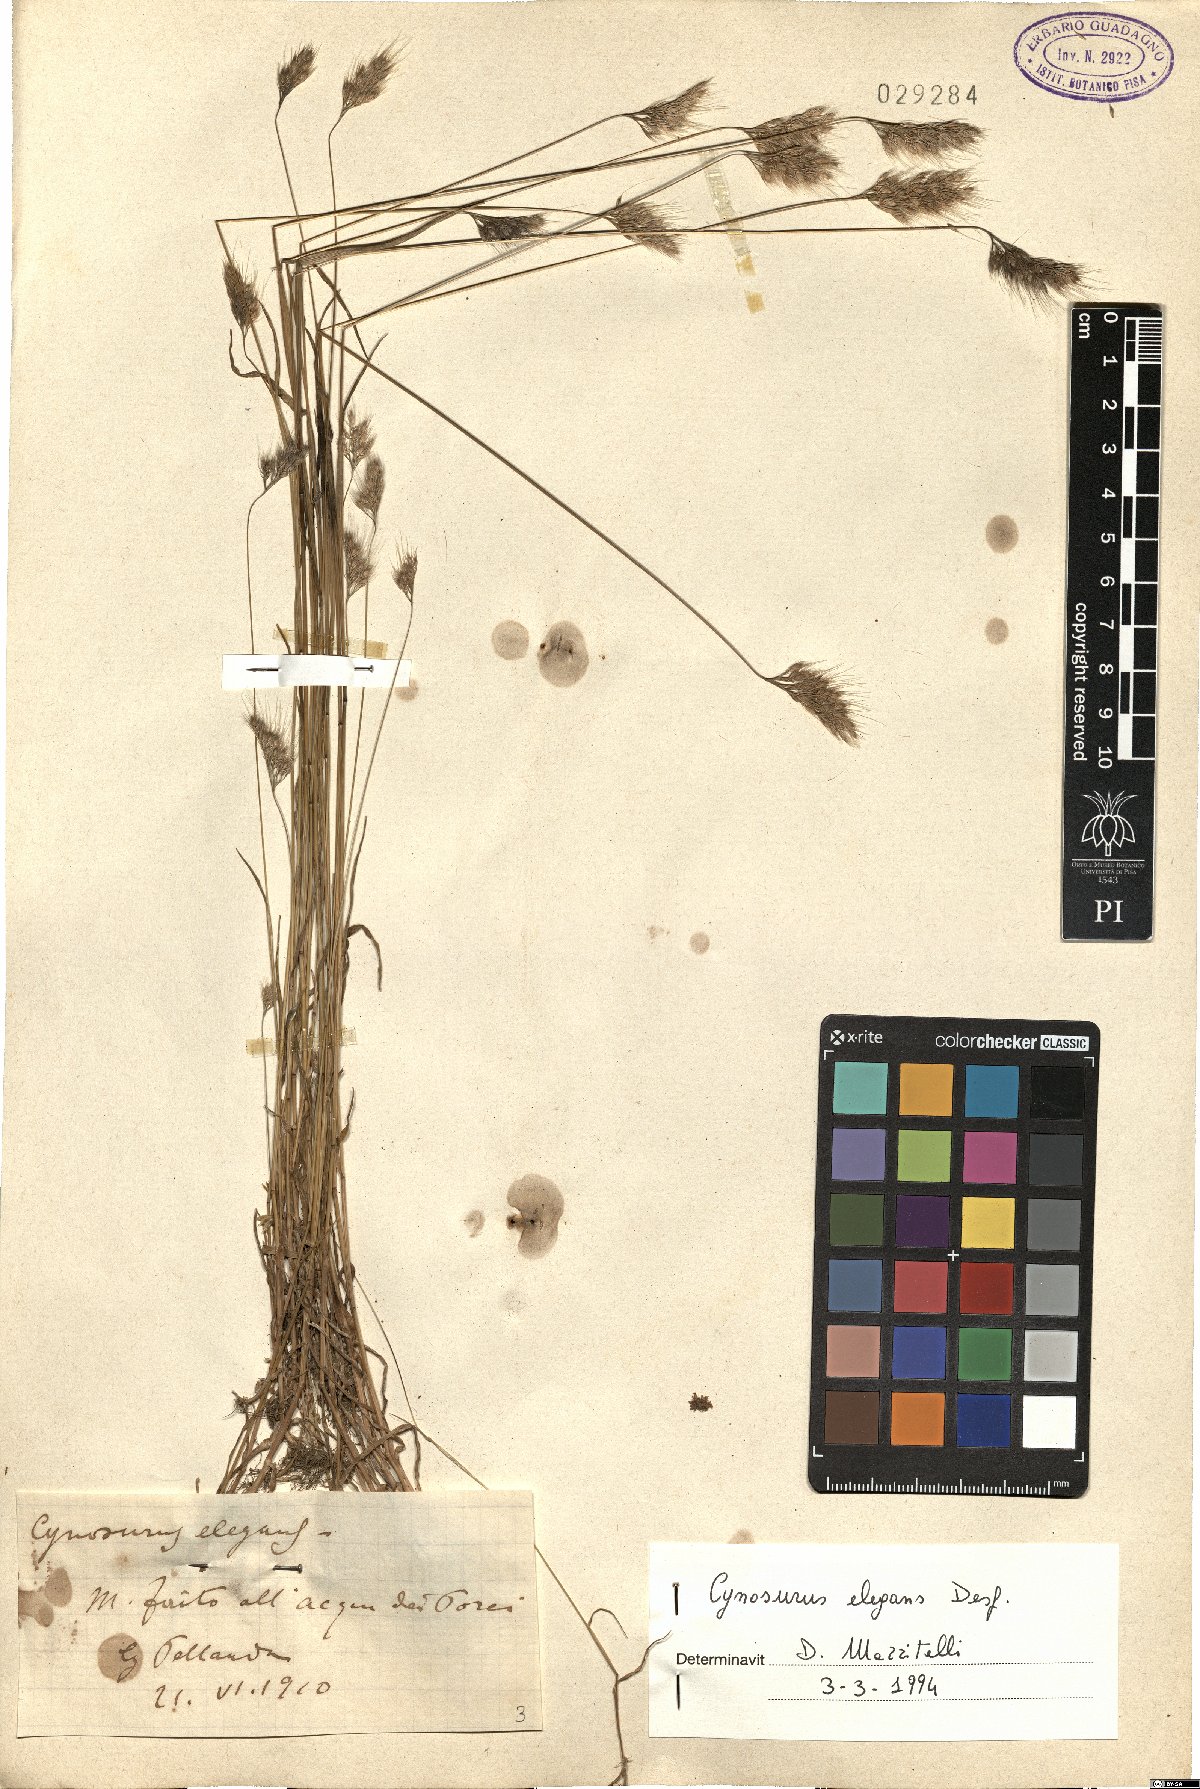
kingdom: Plantae
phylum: Tracheophyta
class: Liliopsida
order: Poales
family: Poaceae
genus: Cynosurus
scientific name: Cynosurus elegans
